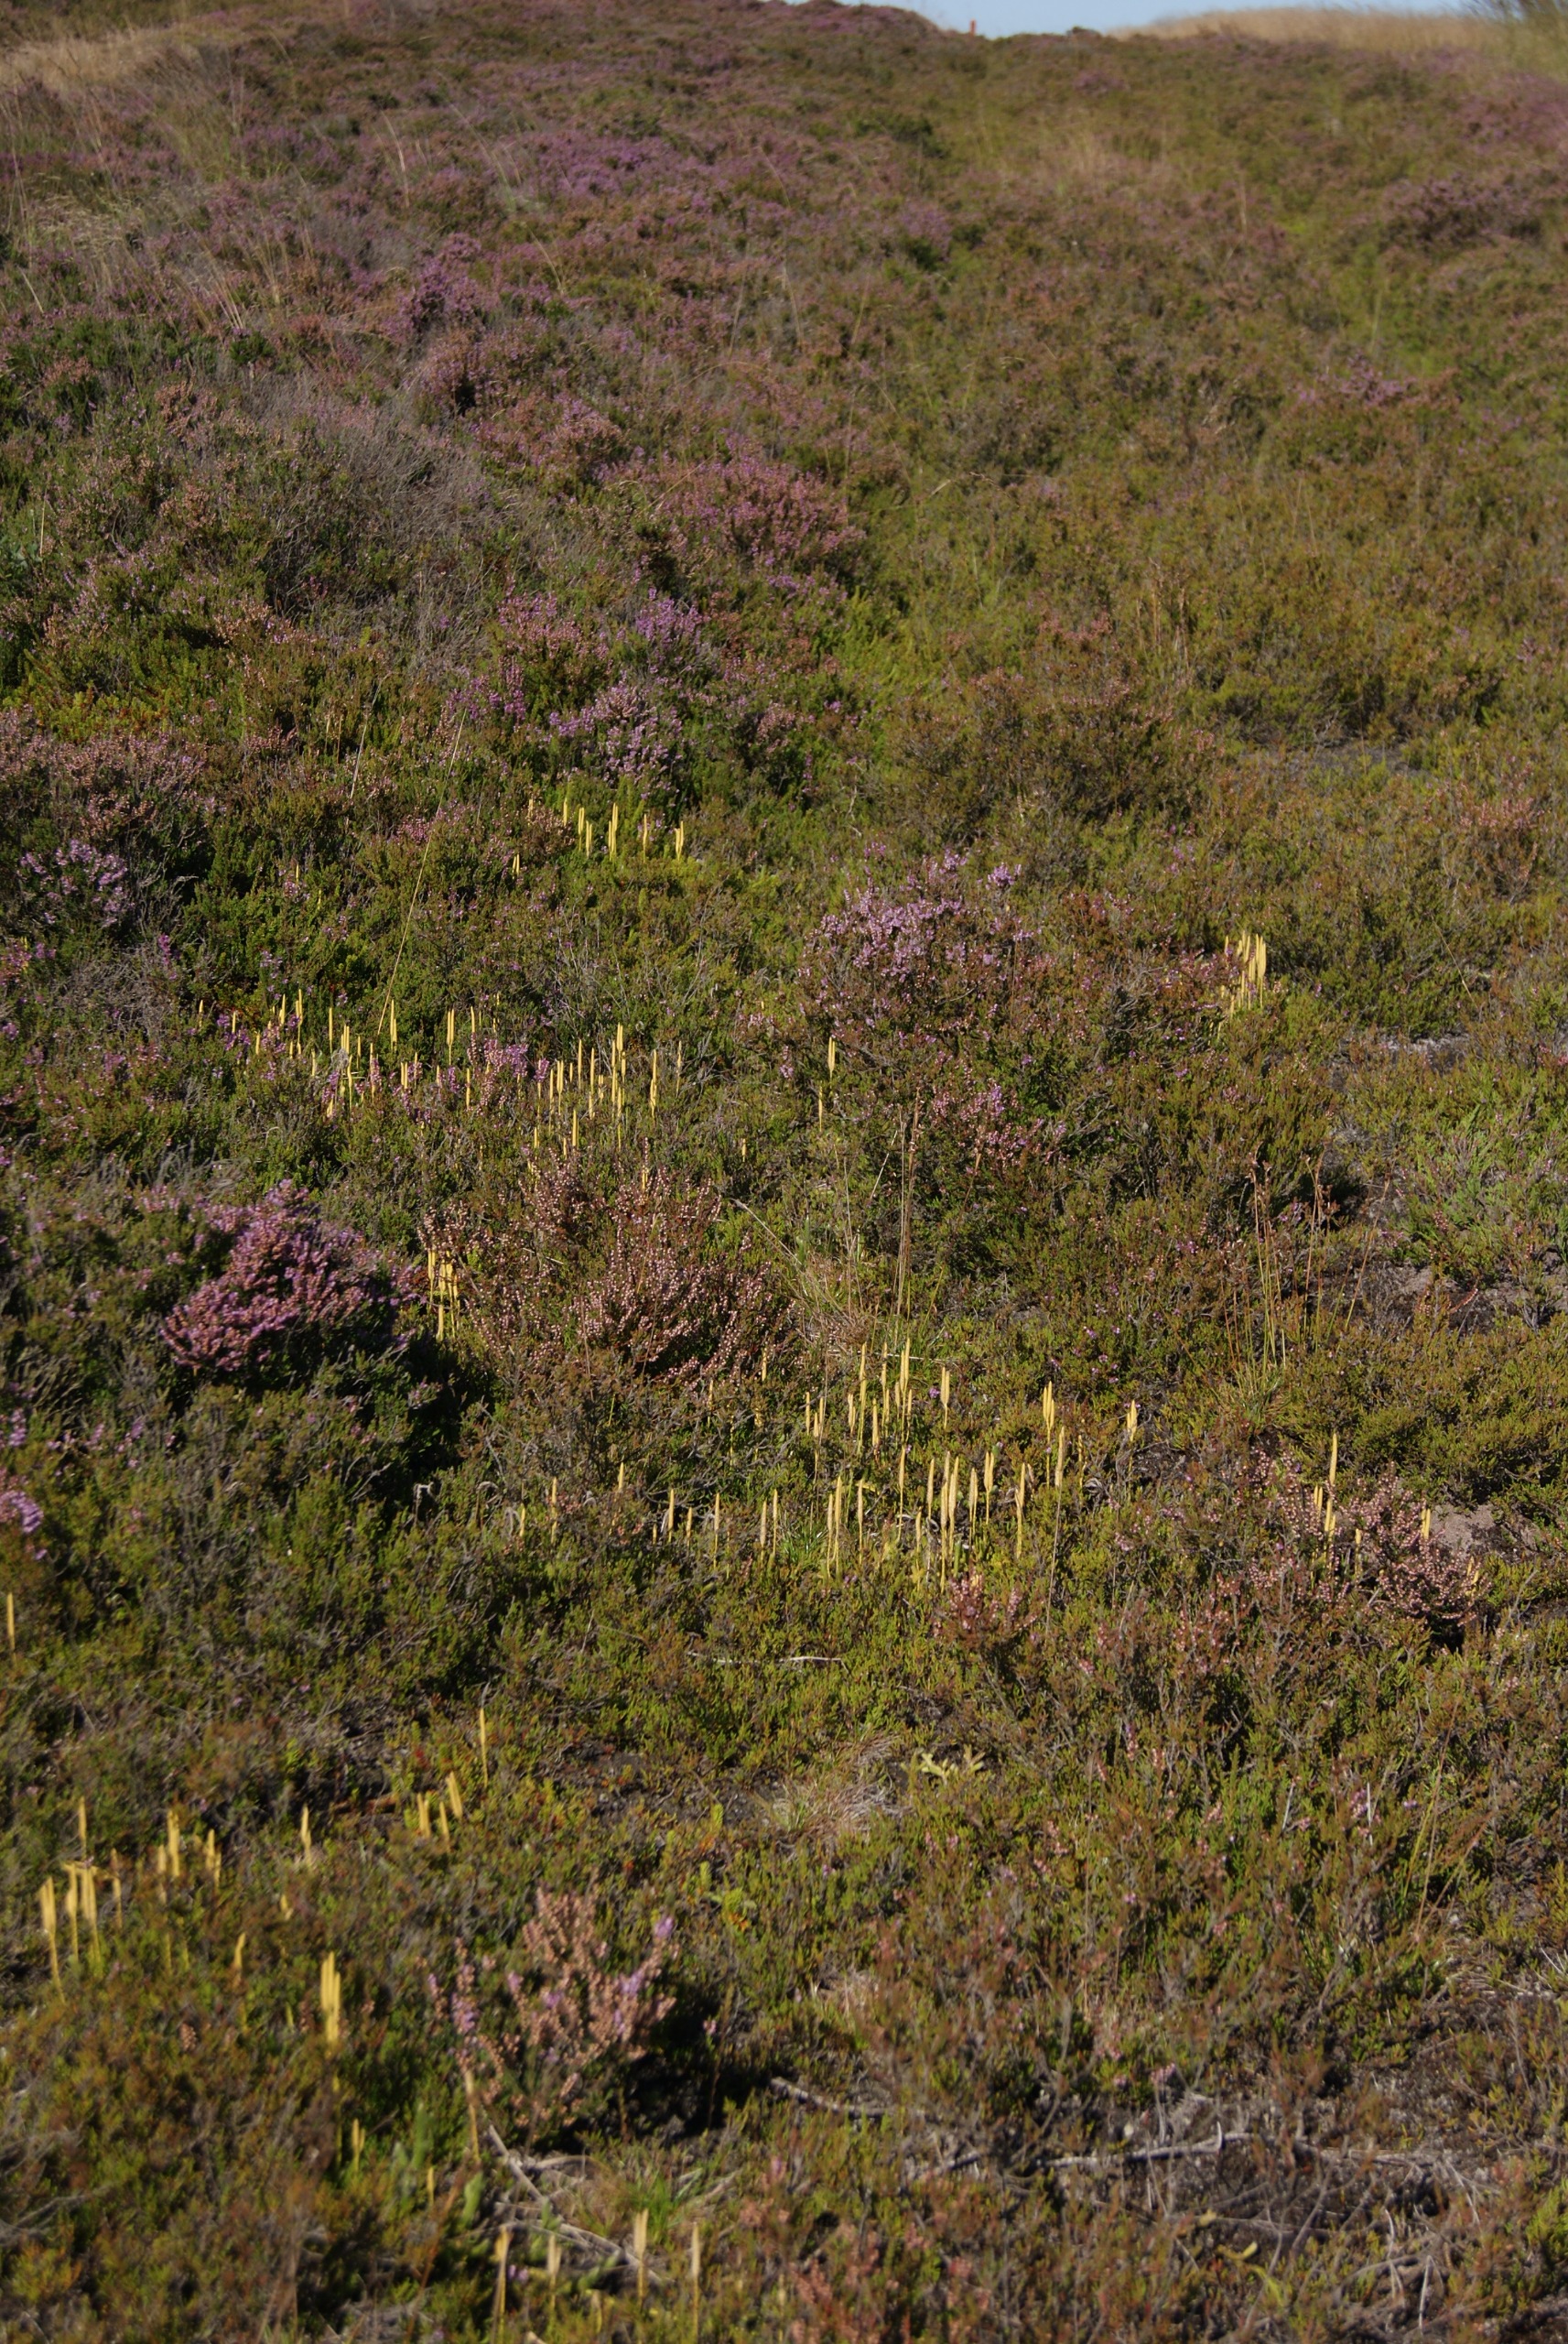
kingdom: Plantae
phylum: Tracheophyta
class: Lycopodiopsida
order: Lycopodiales
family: Lycopodiaceae
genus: Lycopodium
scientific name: Lycopodium clavatum
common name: Almindelig ulvefod
